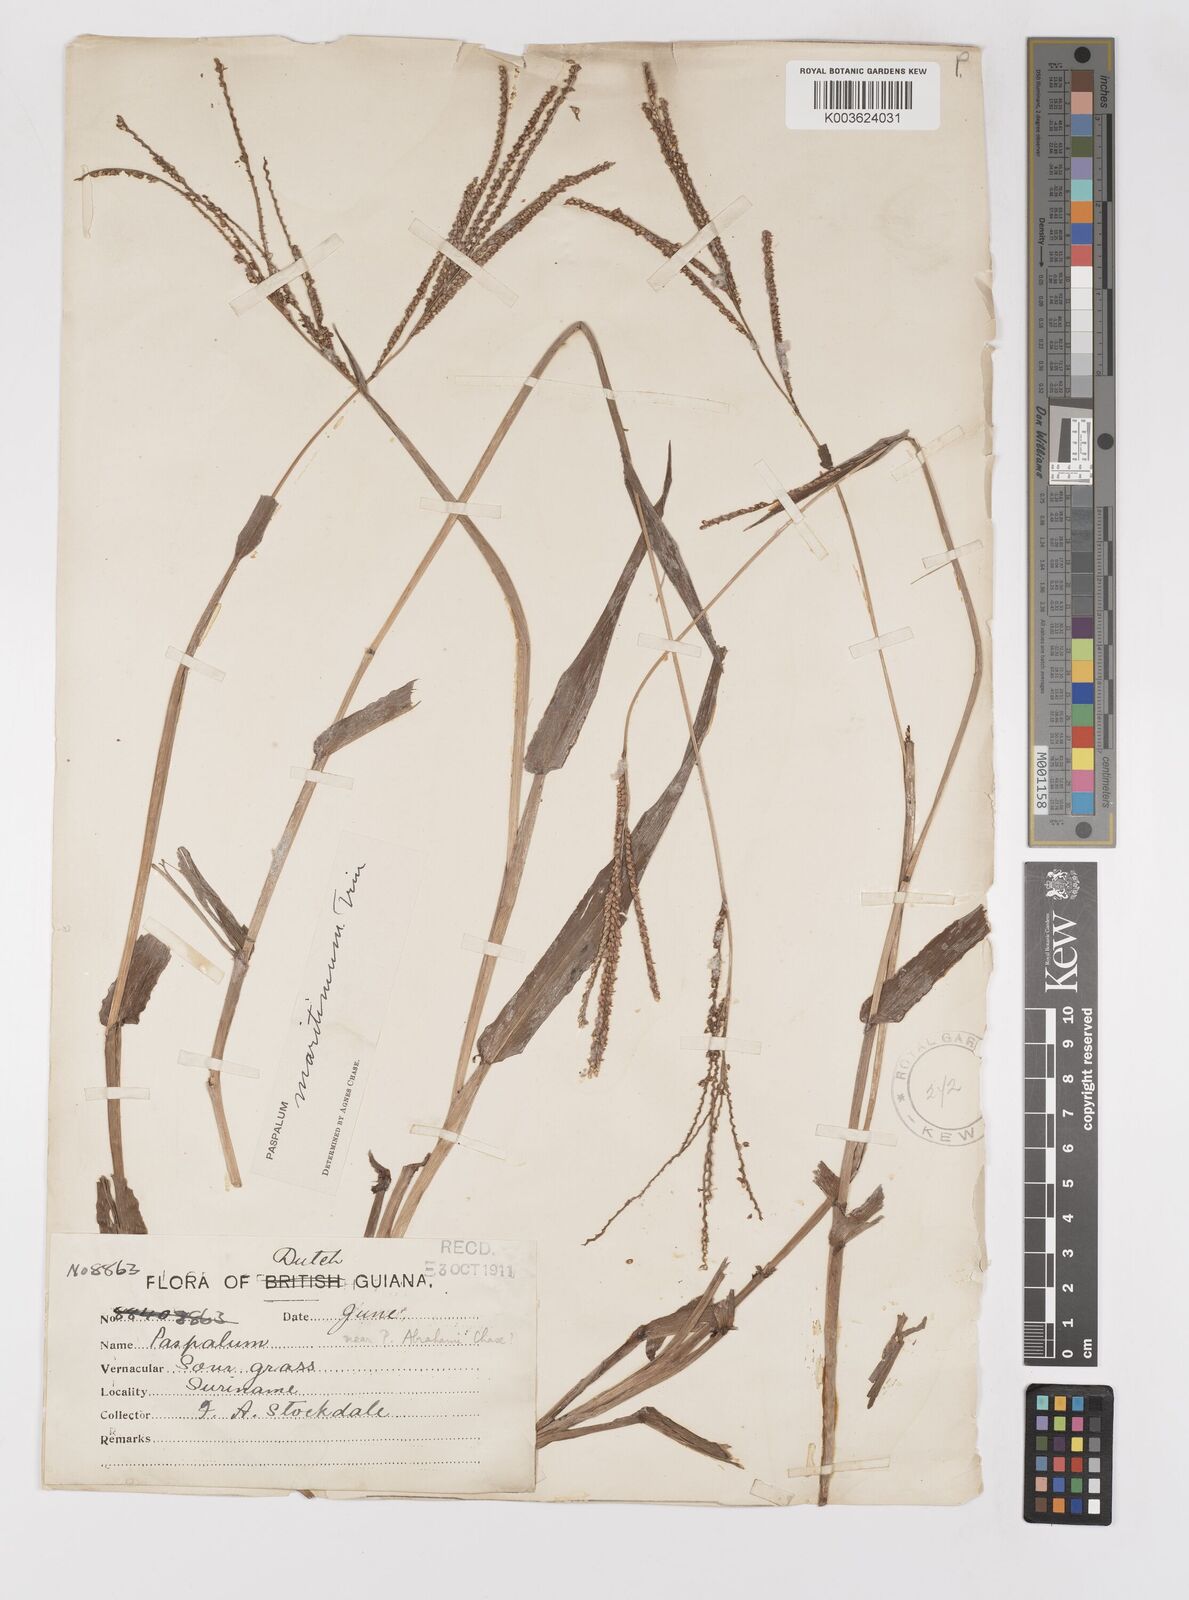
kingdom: Plantae
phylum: Tracheophyta
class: Liliopsida
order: Poales
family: Poaceae
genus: Paspalum
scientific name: Paspalum maritimum
